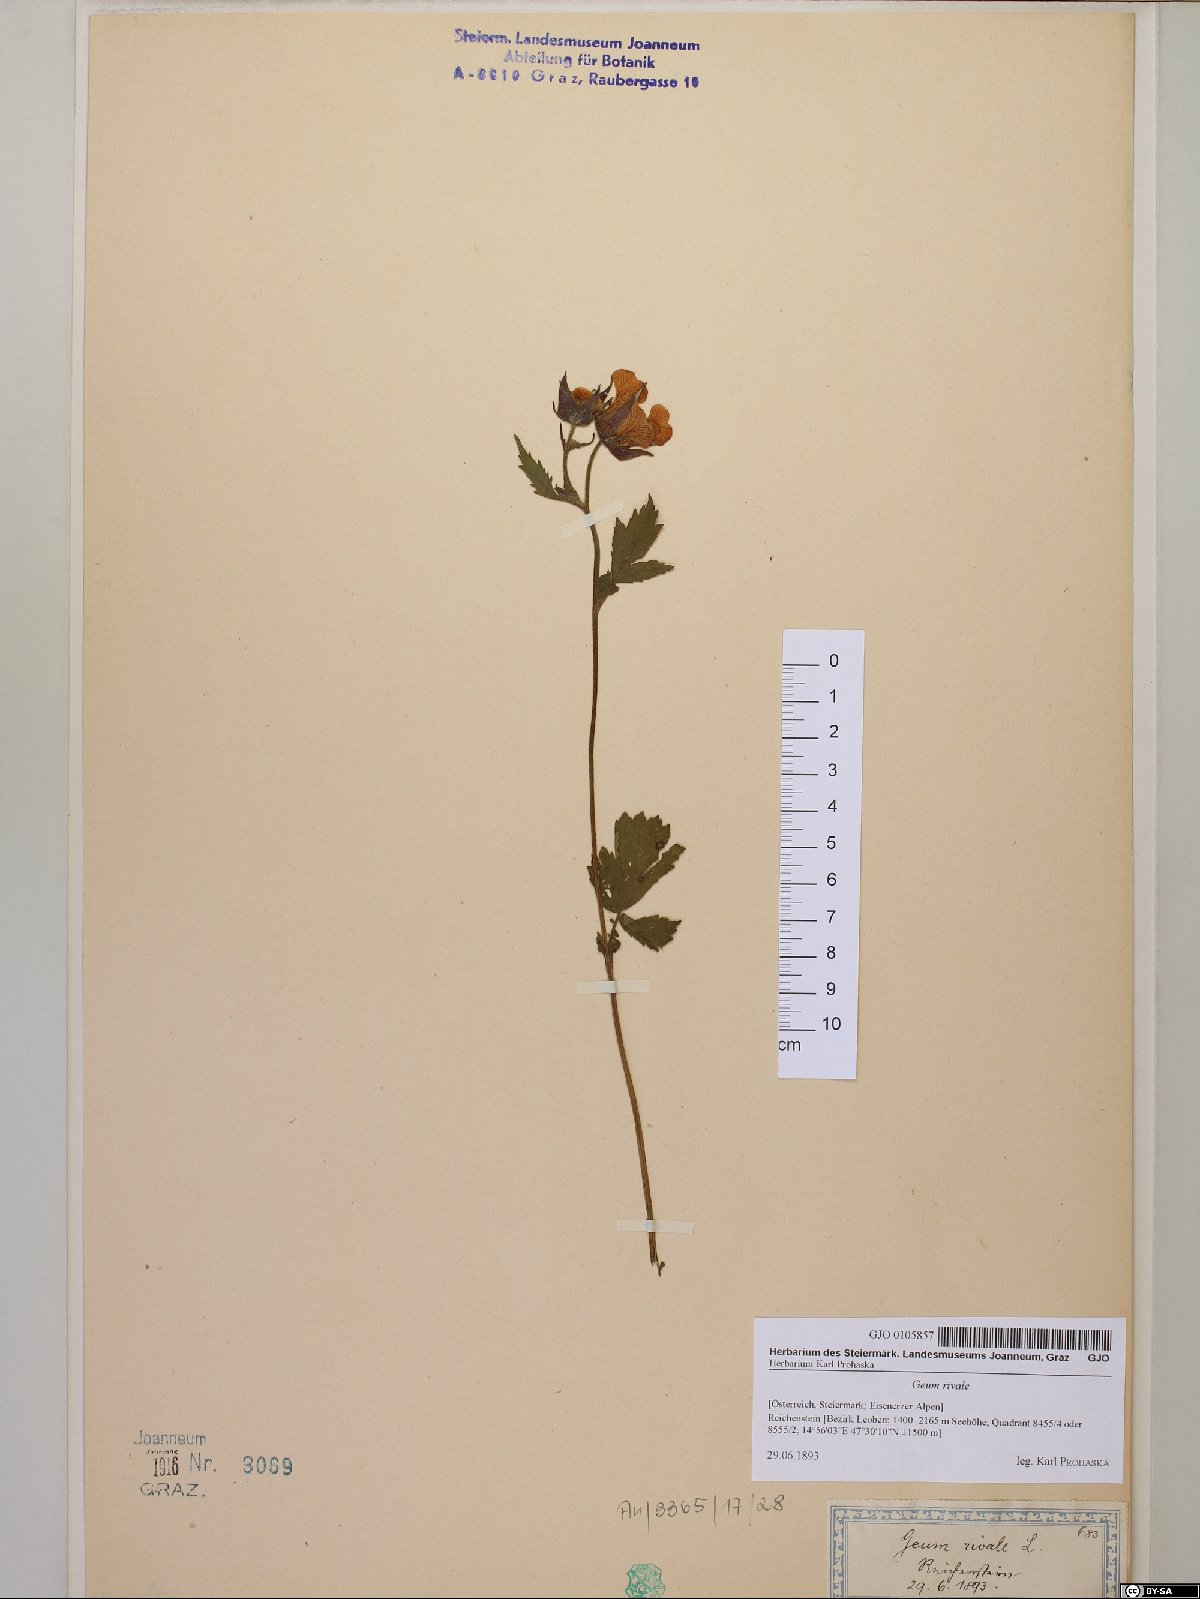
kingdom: Plantae
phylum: Tracheophyta
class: Magnoliopsida
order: Rosales
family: Rosaceae
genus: Geum
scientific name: Geum rivale
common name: Water avens
